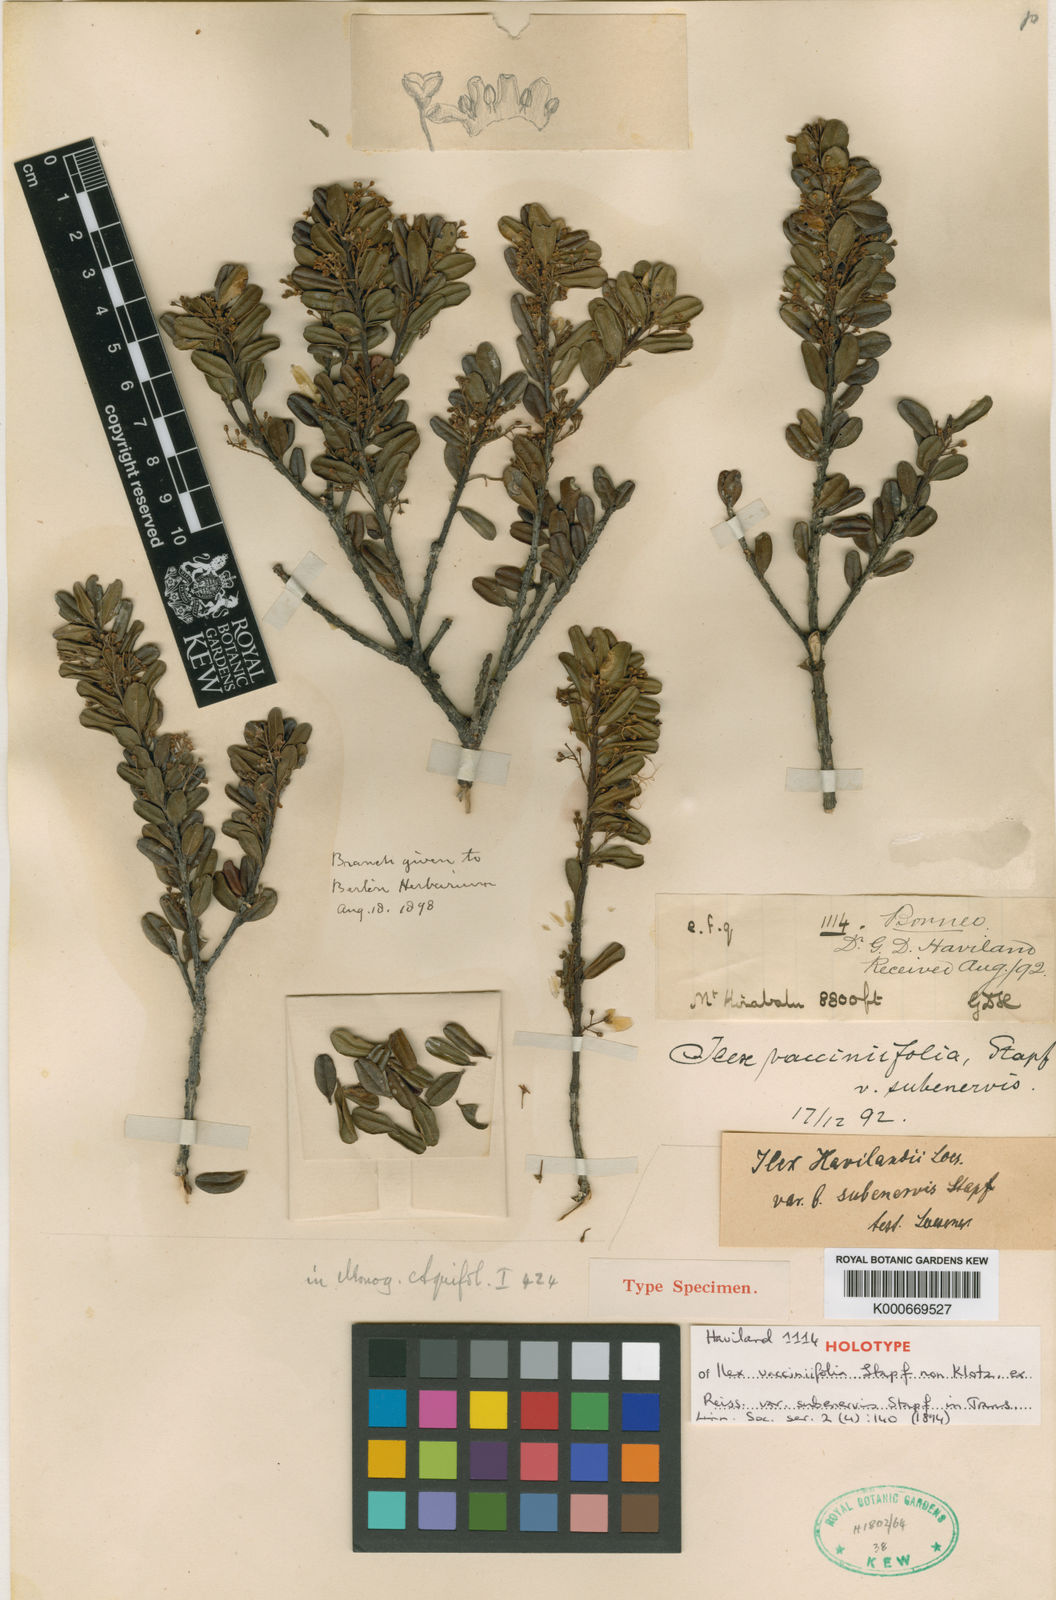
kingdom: Plantae
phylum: Tracheophyta
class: Magnoliopsida
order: Aquifoliales
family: Aquifoliaceae
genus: Ilex
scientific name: Ilex havilandii
